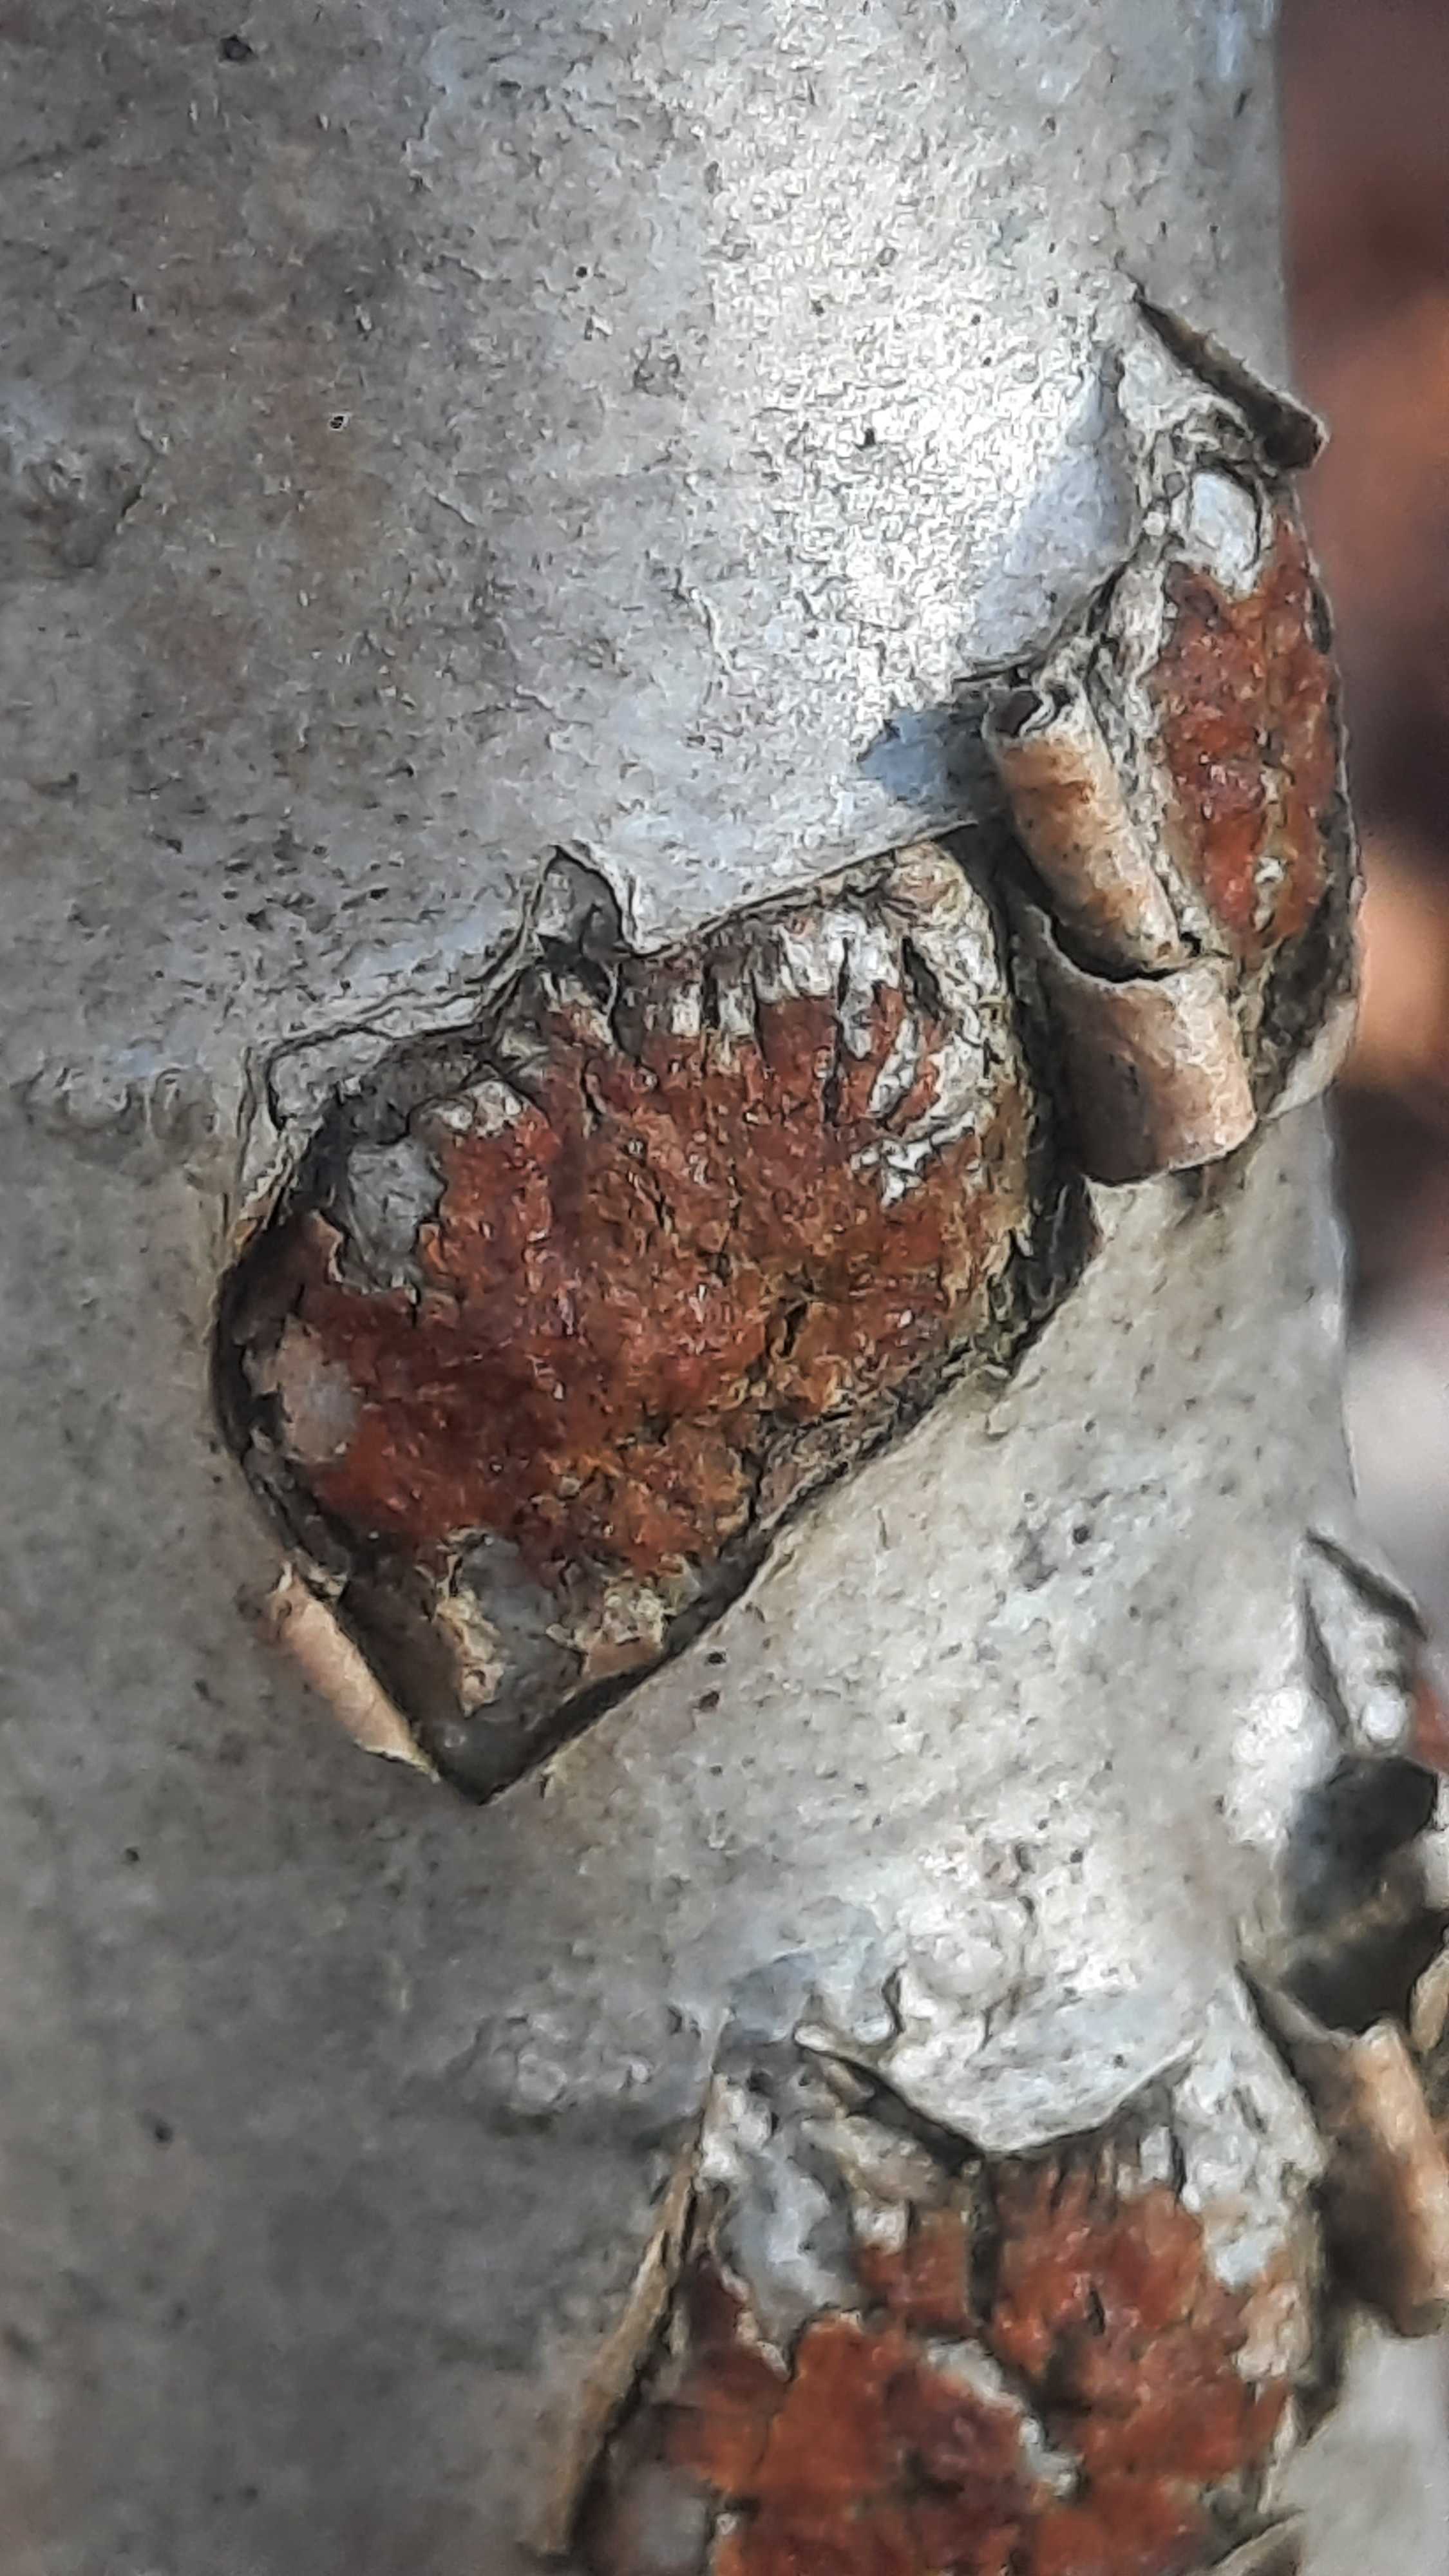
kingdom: Fungi
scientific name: Fungi
